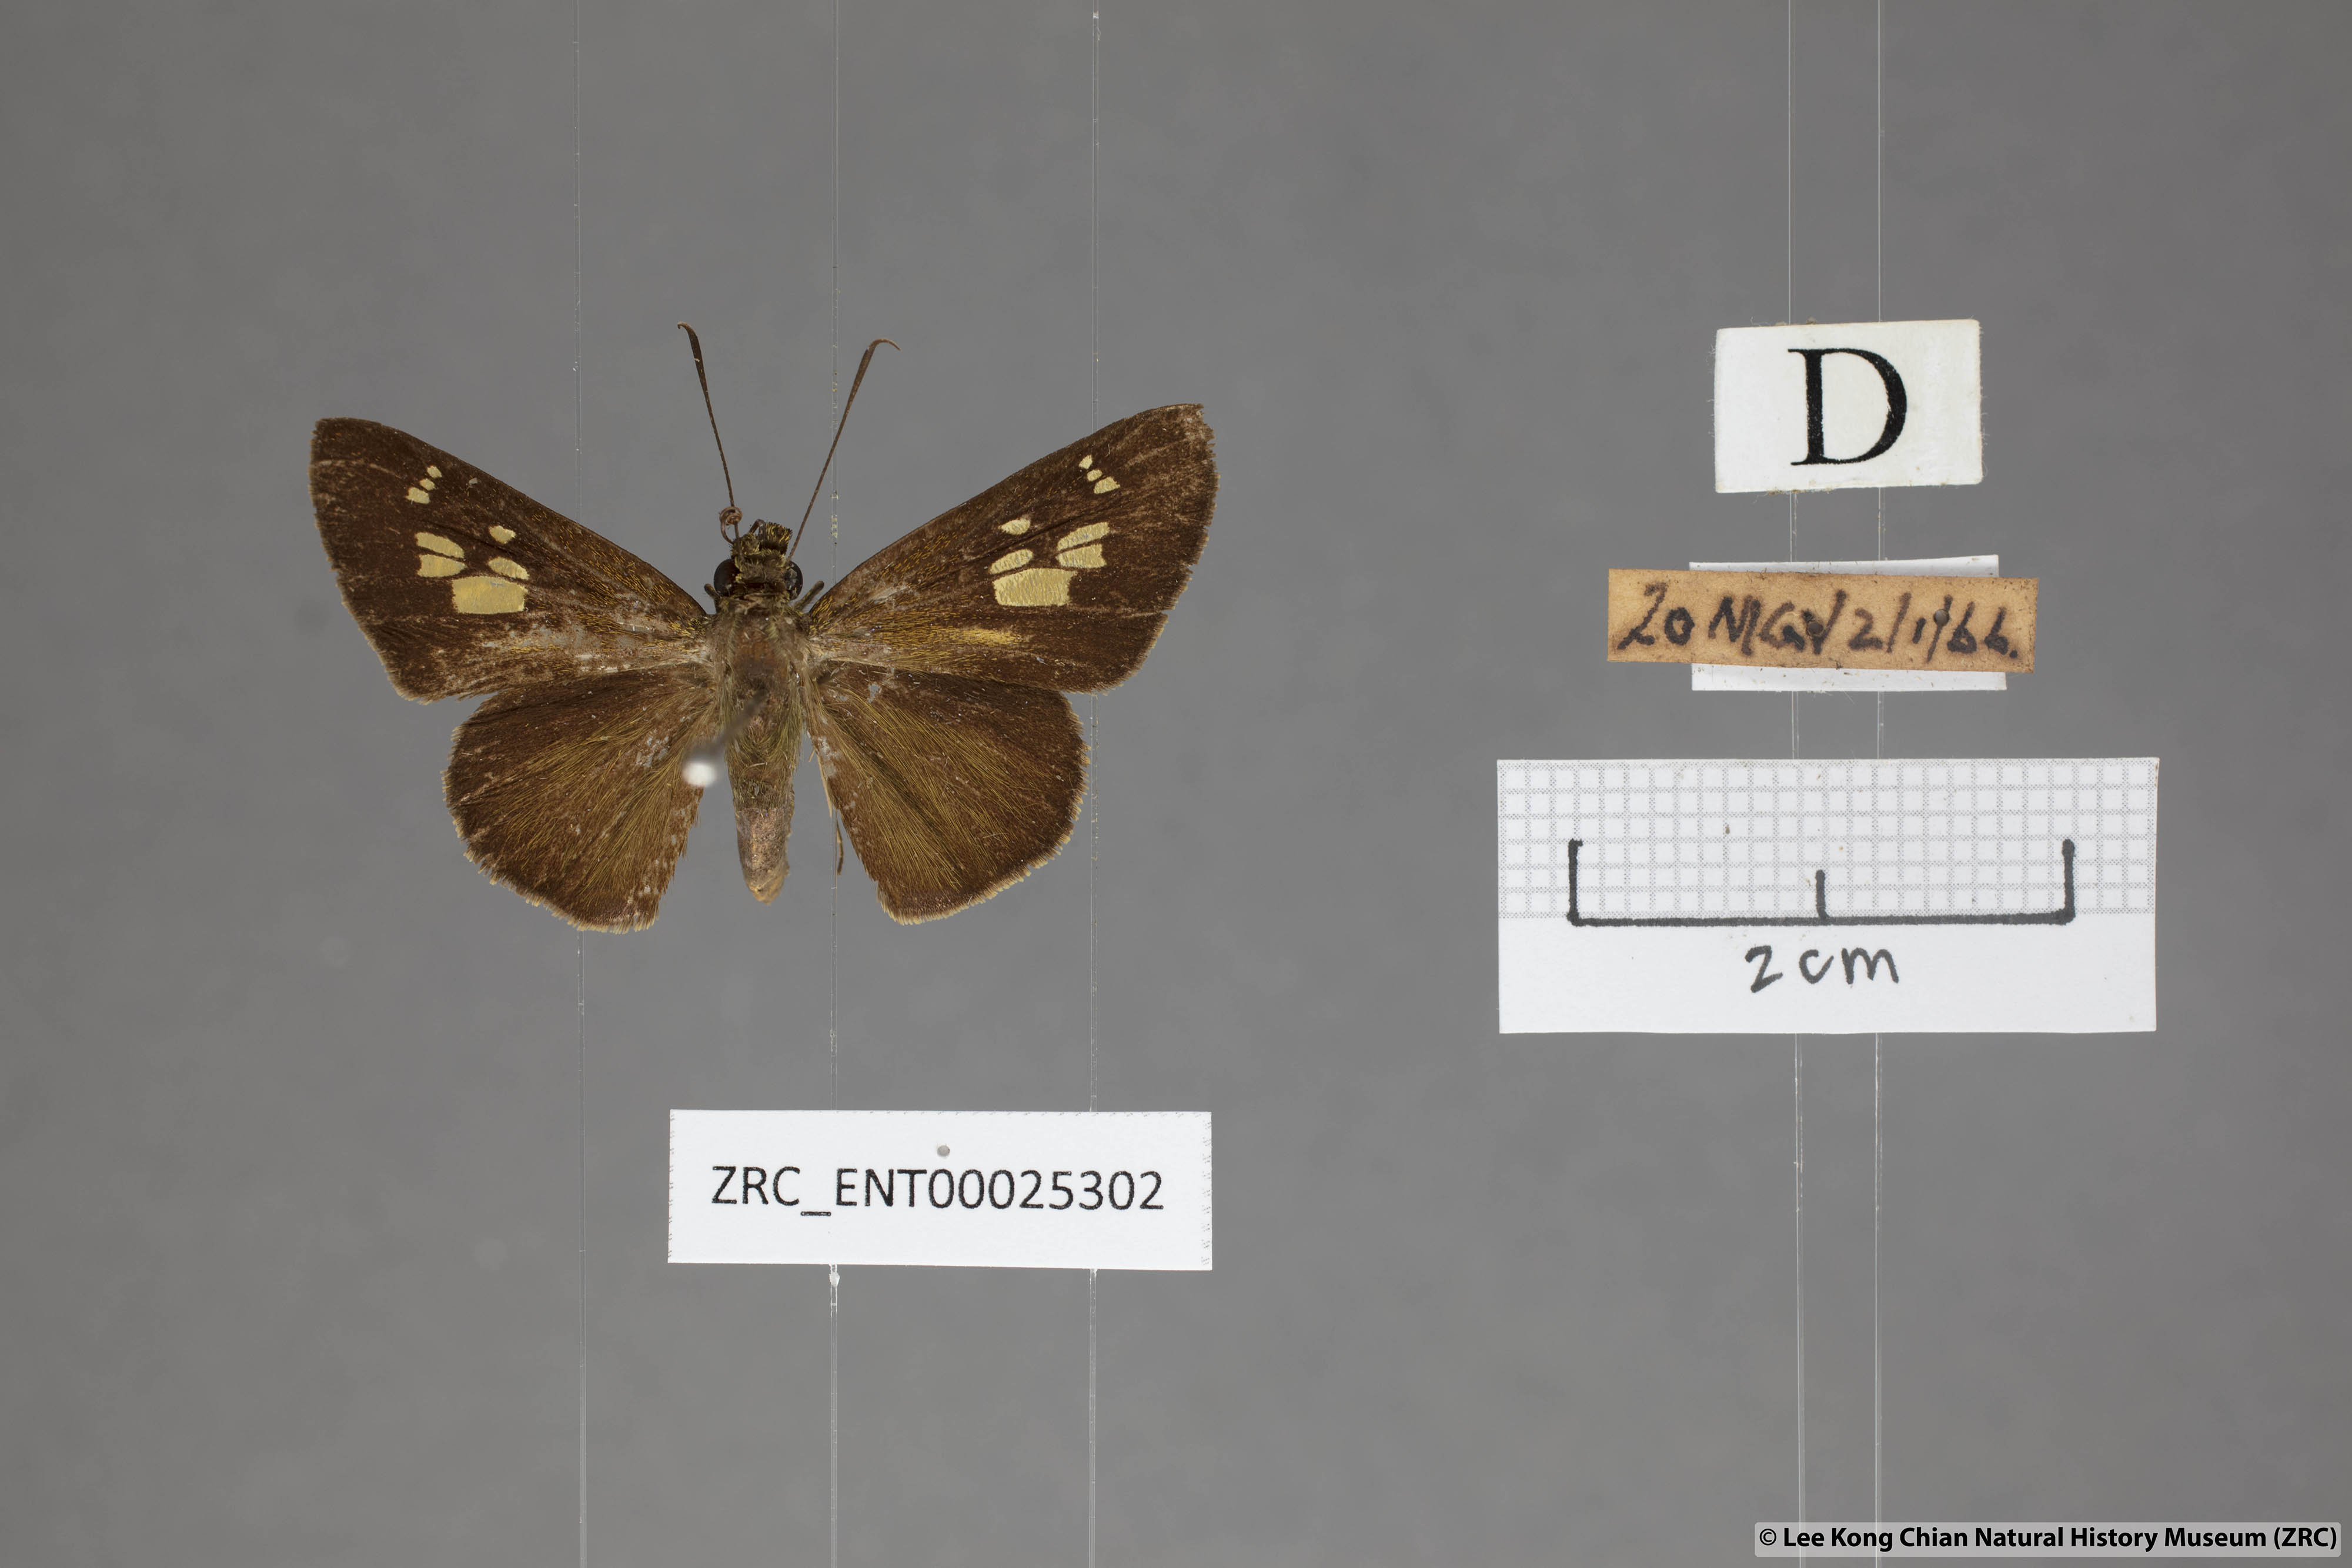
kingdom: Animalia
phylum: Arthropoda
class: Insecta
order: Lepidoptera
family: Hesperiidae
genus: Pemara
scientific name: Pemara pugnans
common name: Pugnacious lancer
